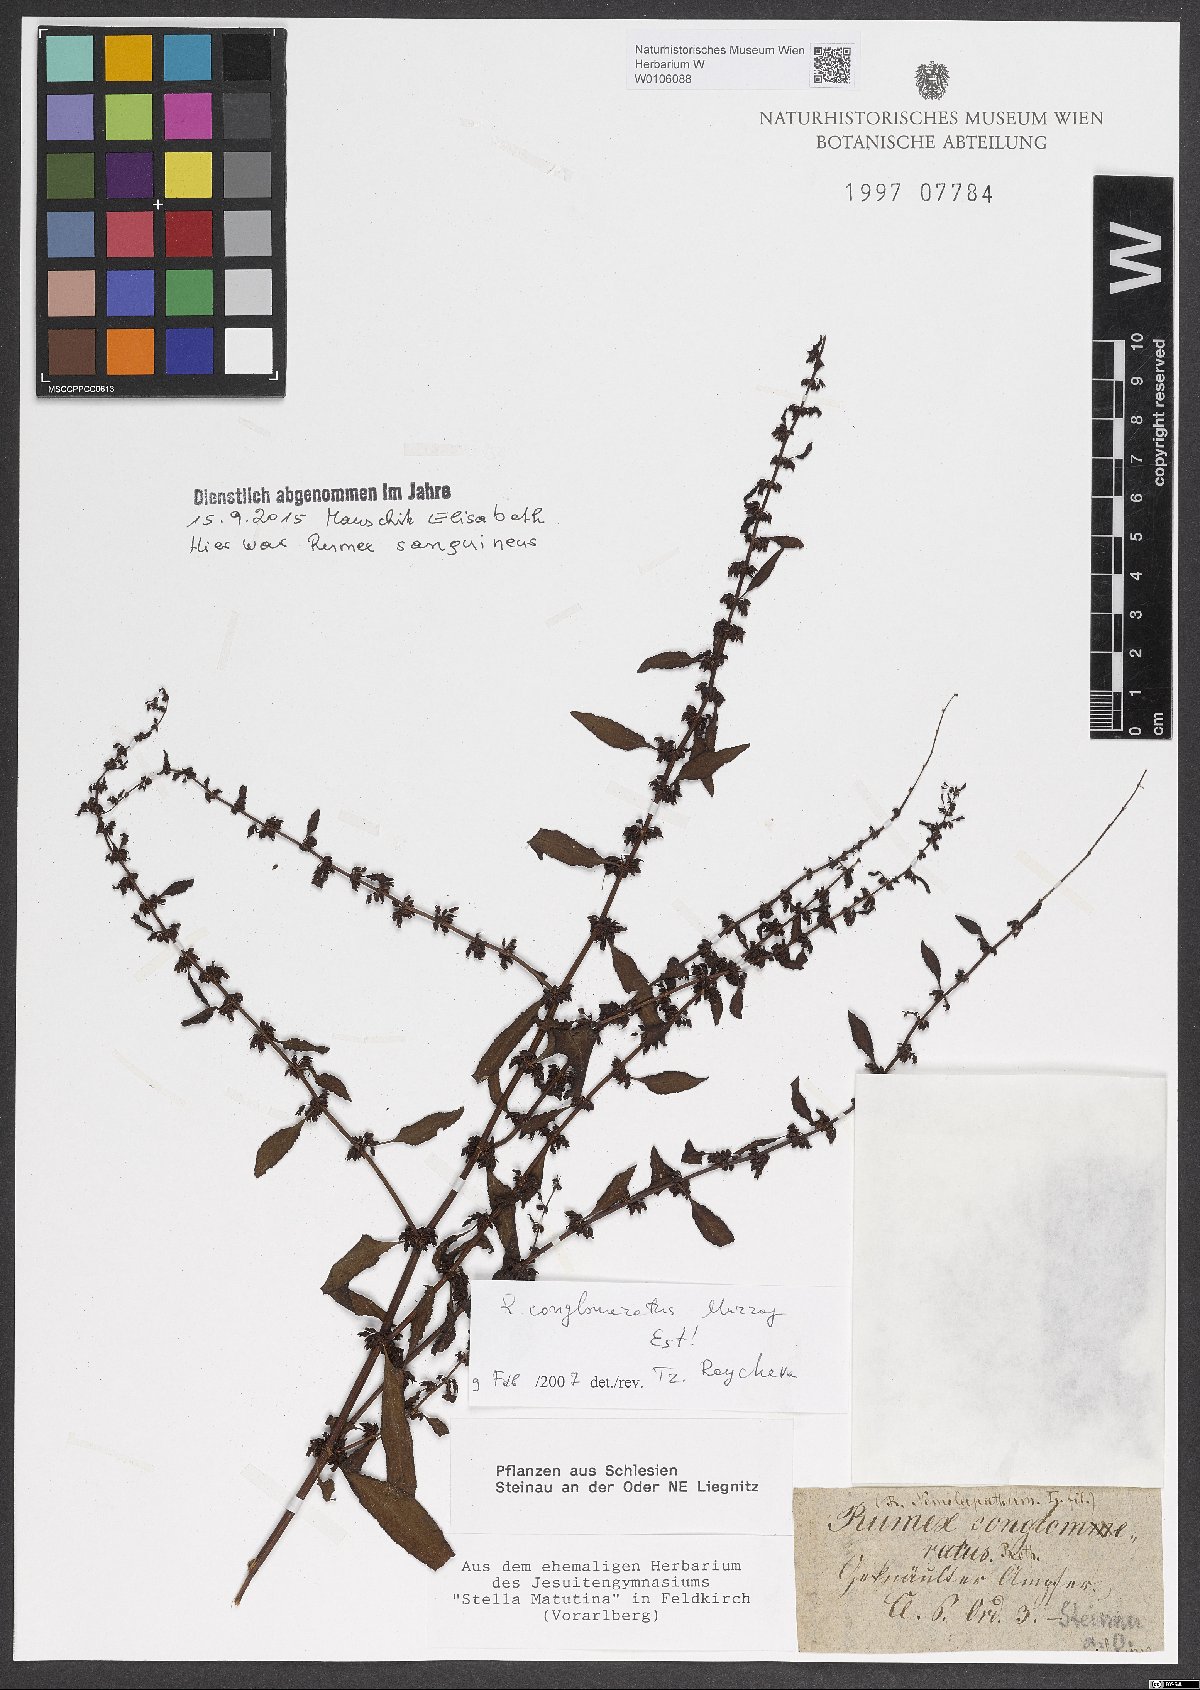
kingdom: Plantae
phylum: Tracheophyta
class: Magnoliopsida
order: Caryophyllales
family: Polygonaceae
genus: Rumex
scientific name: Rumex conglomeratus
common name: Clustered dock
